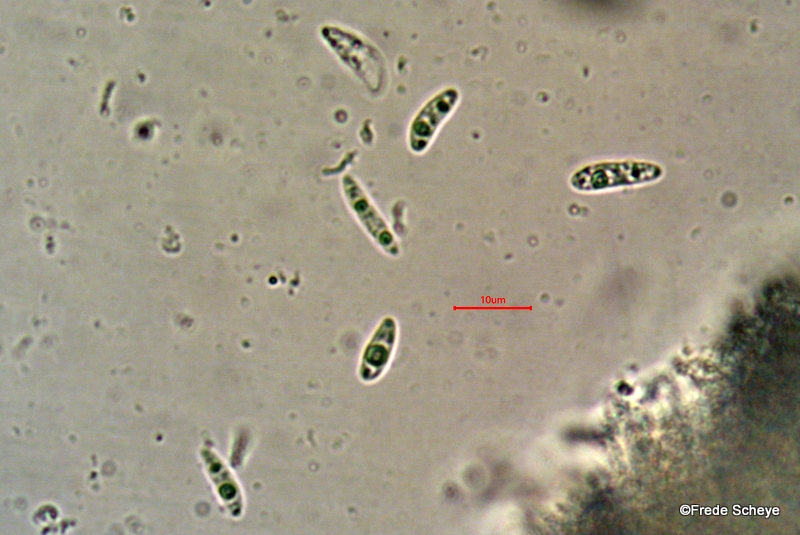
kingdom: Fungi
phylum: Ascomycota
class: Leotiomycetes
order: Helotiales
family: Helotiaceae
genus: Bispora
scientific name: Bispora pallescens
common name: måtte-snitskive
